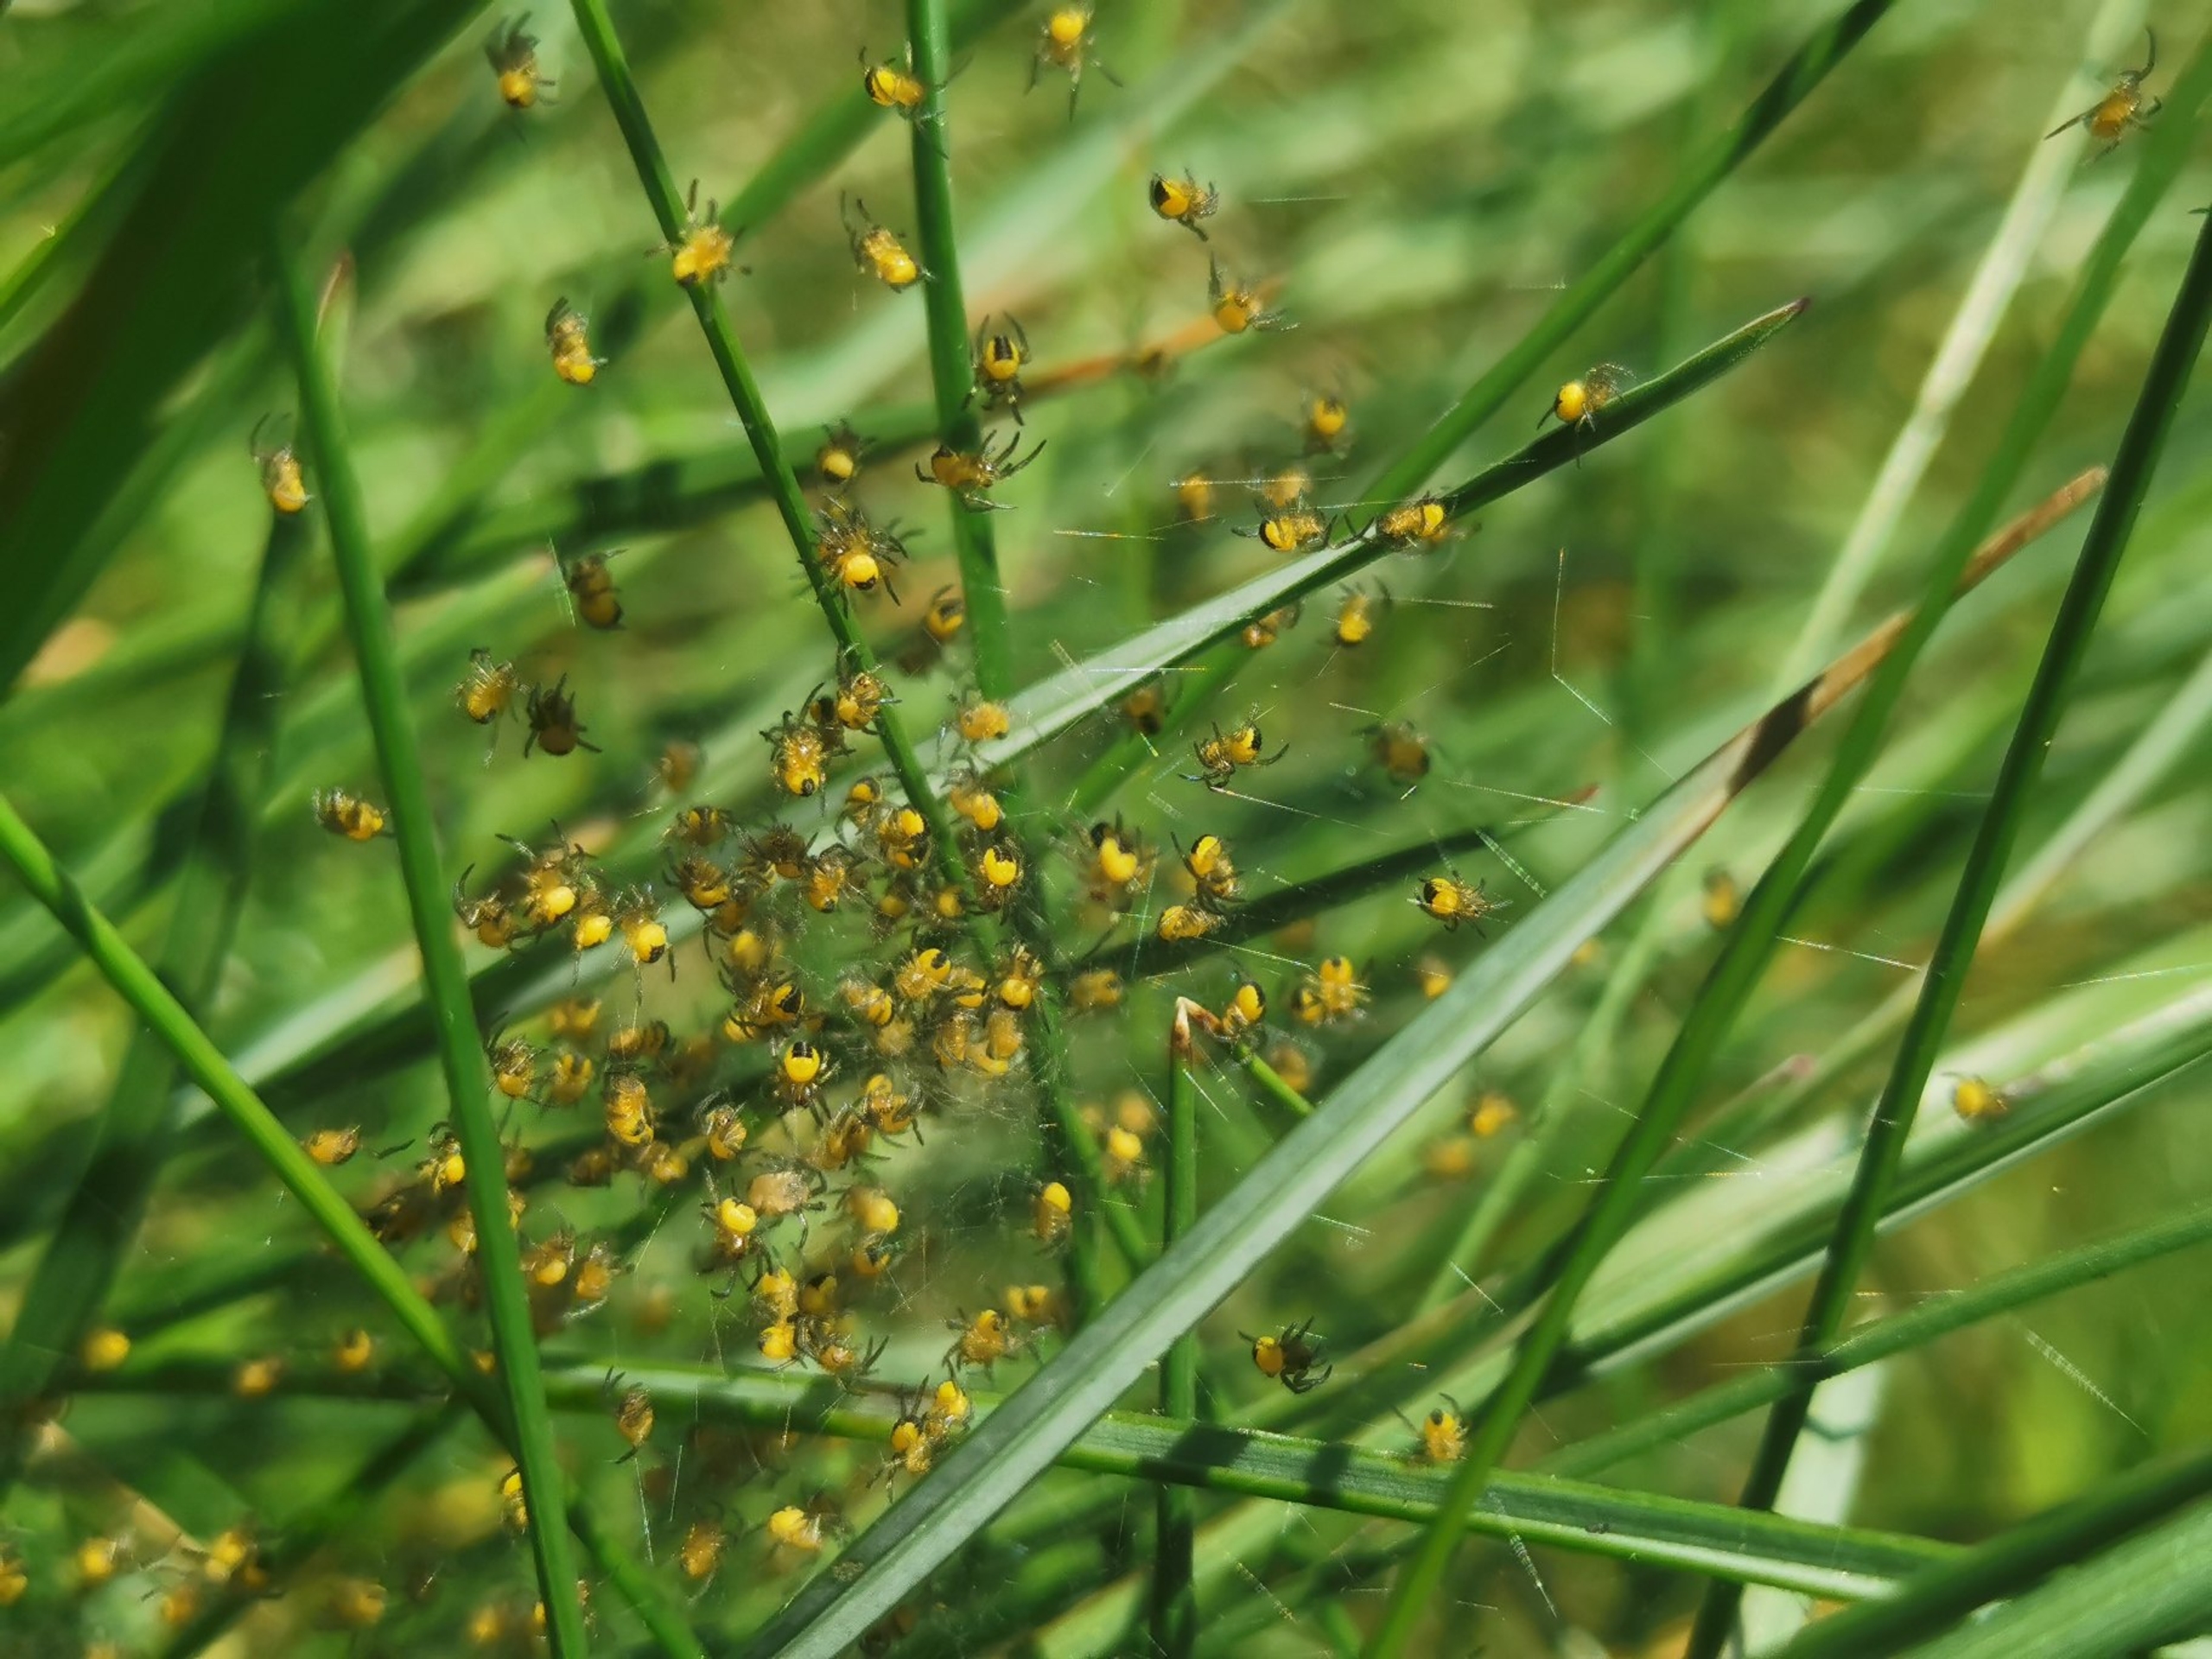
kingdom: Animalia
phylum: Arthropoda
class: Arachnida
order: Araneae
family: Araneidae
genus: Araneus
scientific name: Araneus diadematus
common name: Korsedderkop
